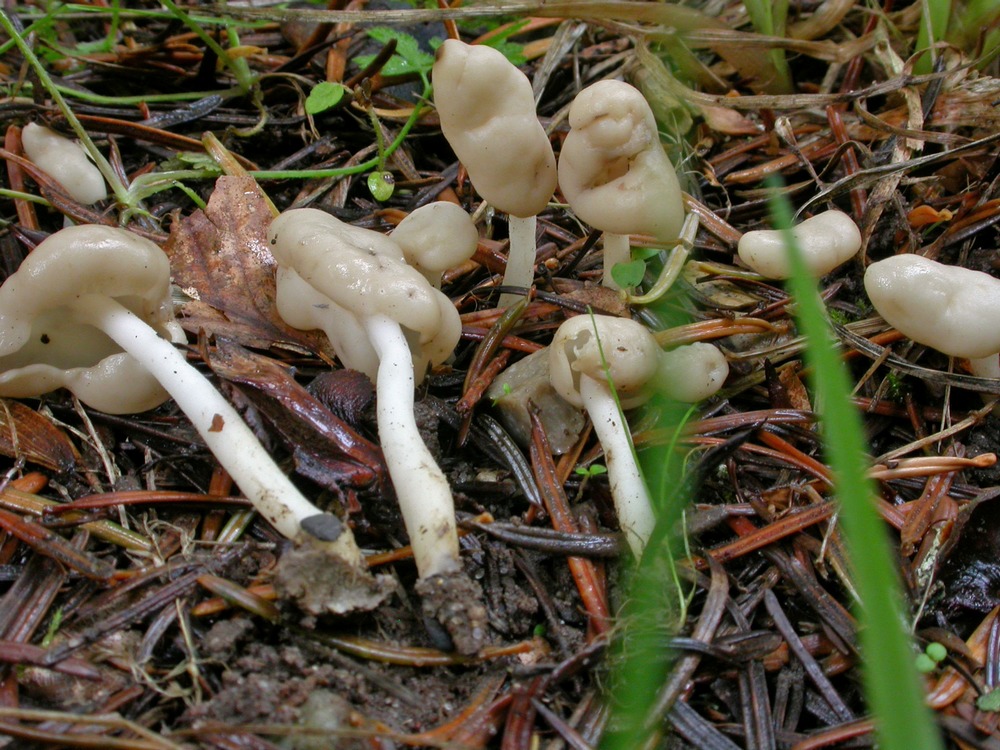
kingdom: Fungi
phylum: Ascomycota
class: Pezizomycetes
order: Pezizales
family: Helvellaceae
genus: Helvella
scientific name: Helvella elastica
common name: elastik-foldhat
